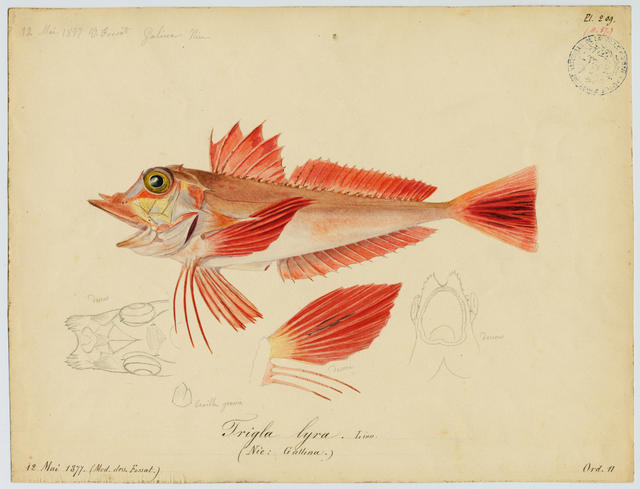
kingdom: Animalia
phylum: Chordata
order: Scorpaeniformes
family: Triglidae
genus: Trigla
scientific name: Trigla lyra
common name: Piper
